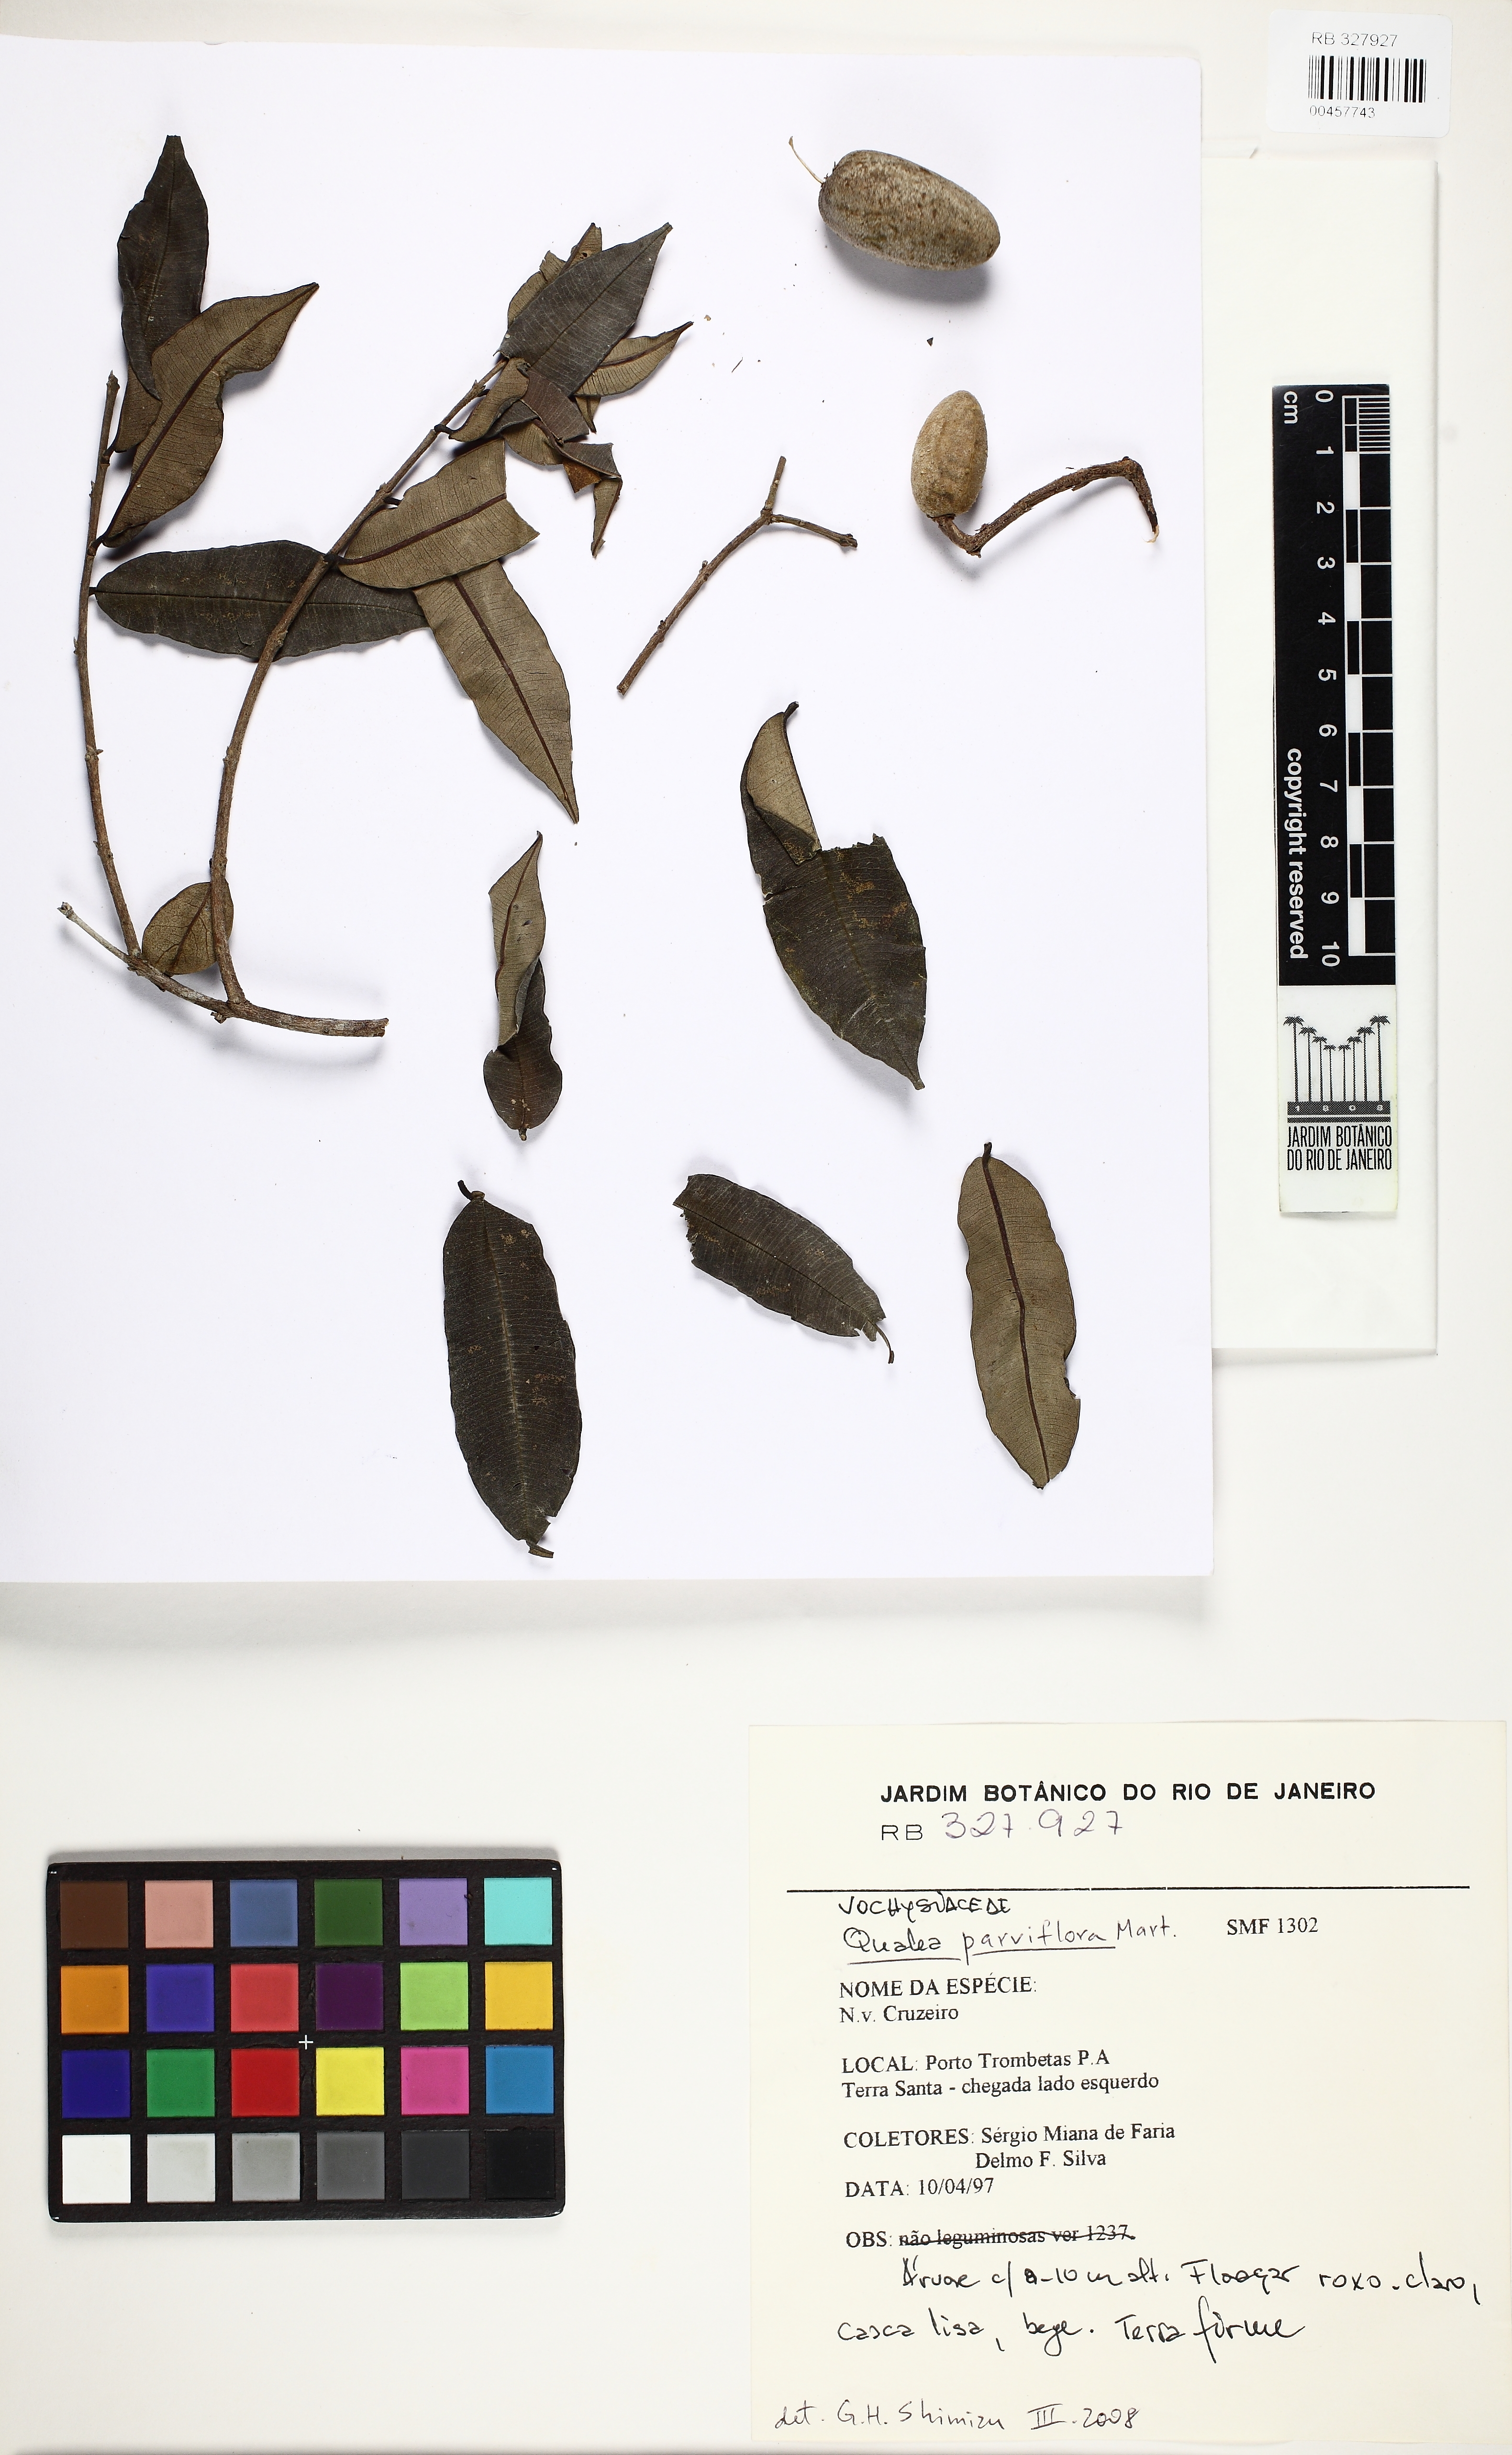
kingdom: Plantae
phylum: Tracheophyta
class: Magnoliopsida
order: Myrtales
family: Vochysiaceae
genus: Qualea
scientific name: Qualea parviflora
